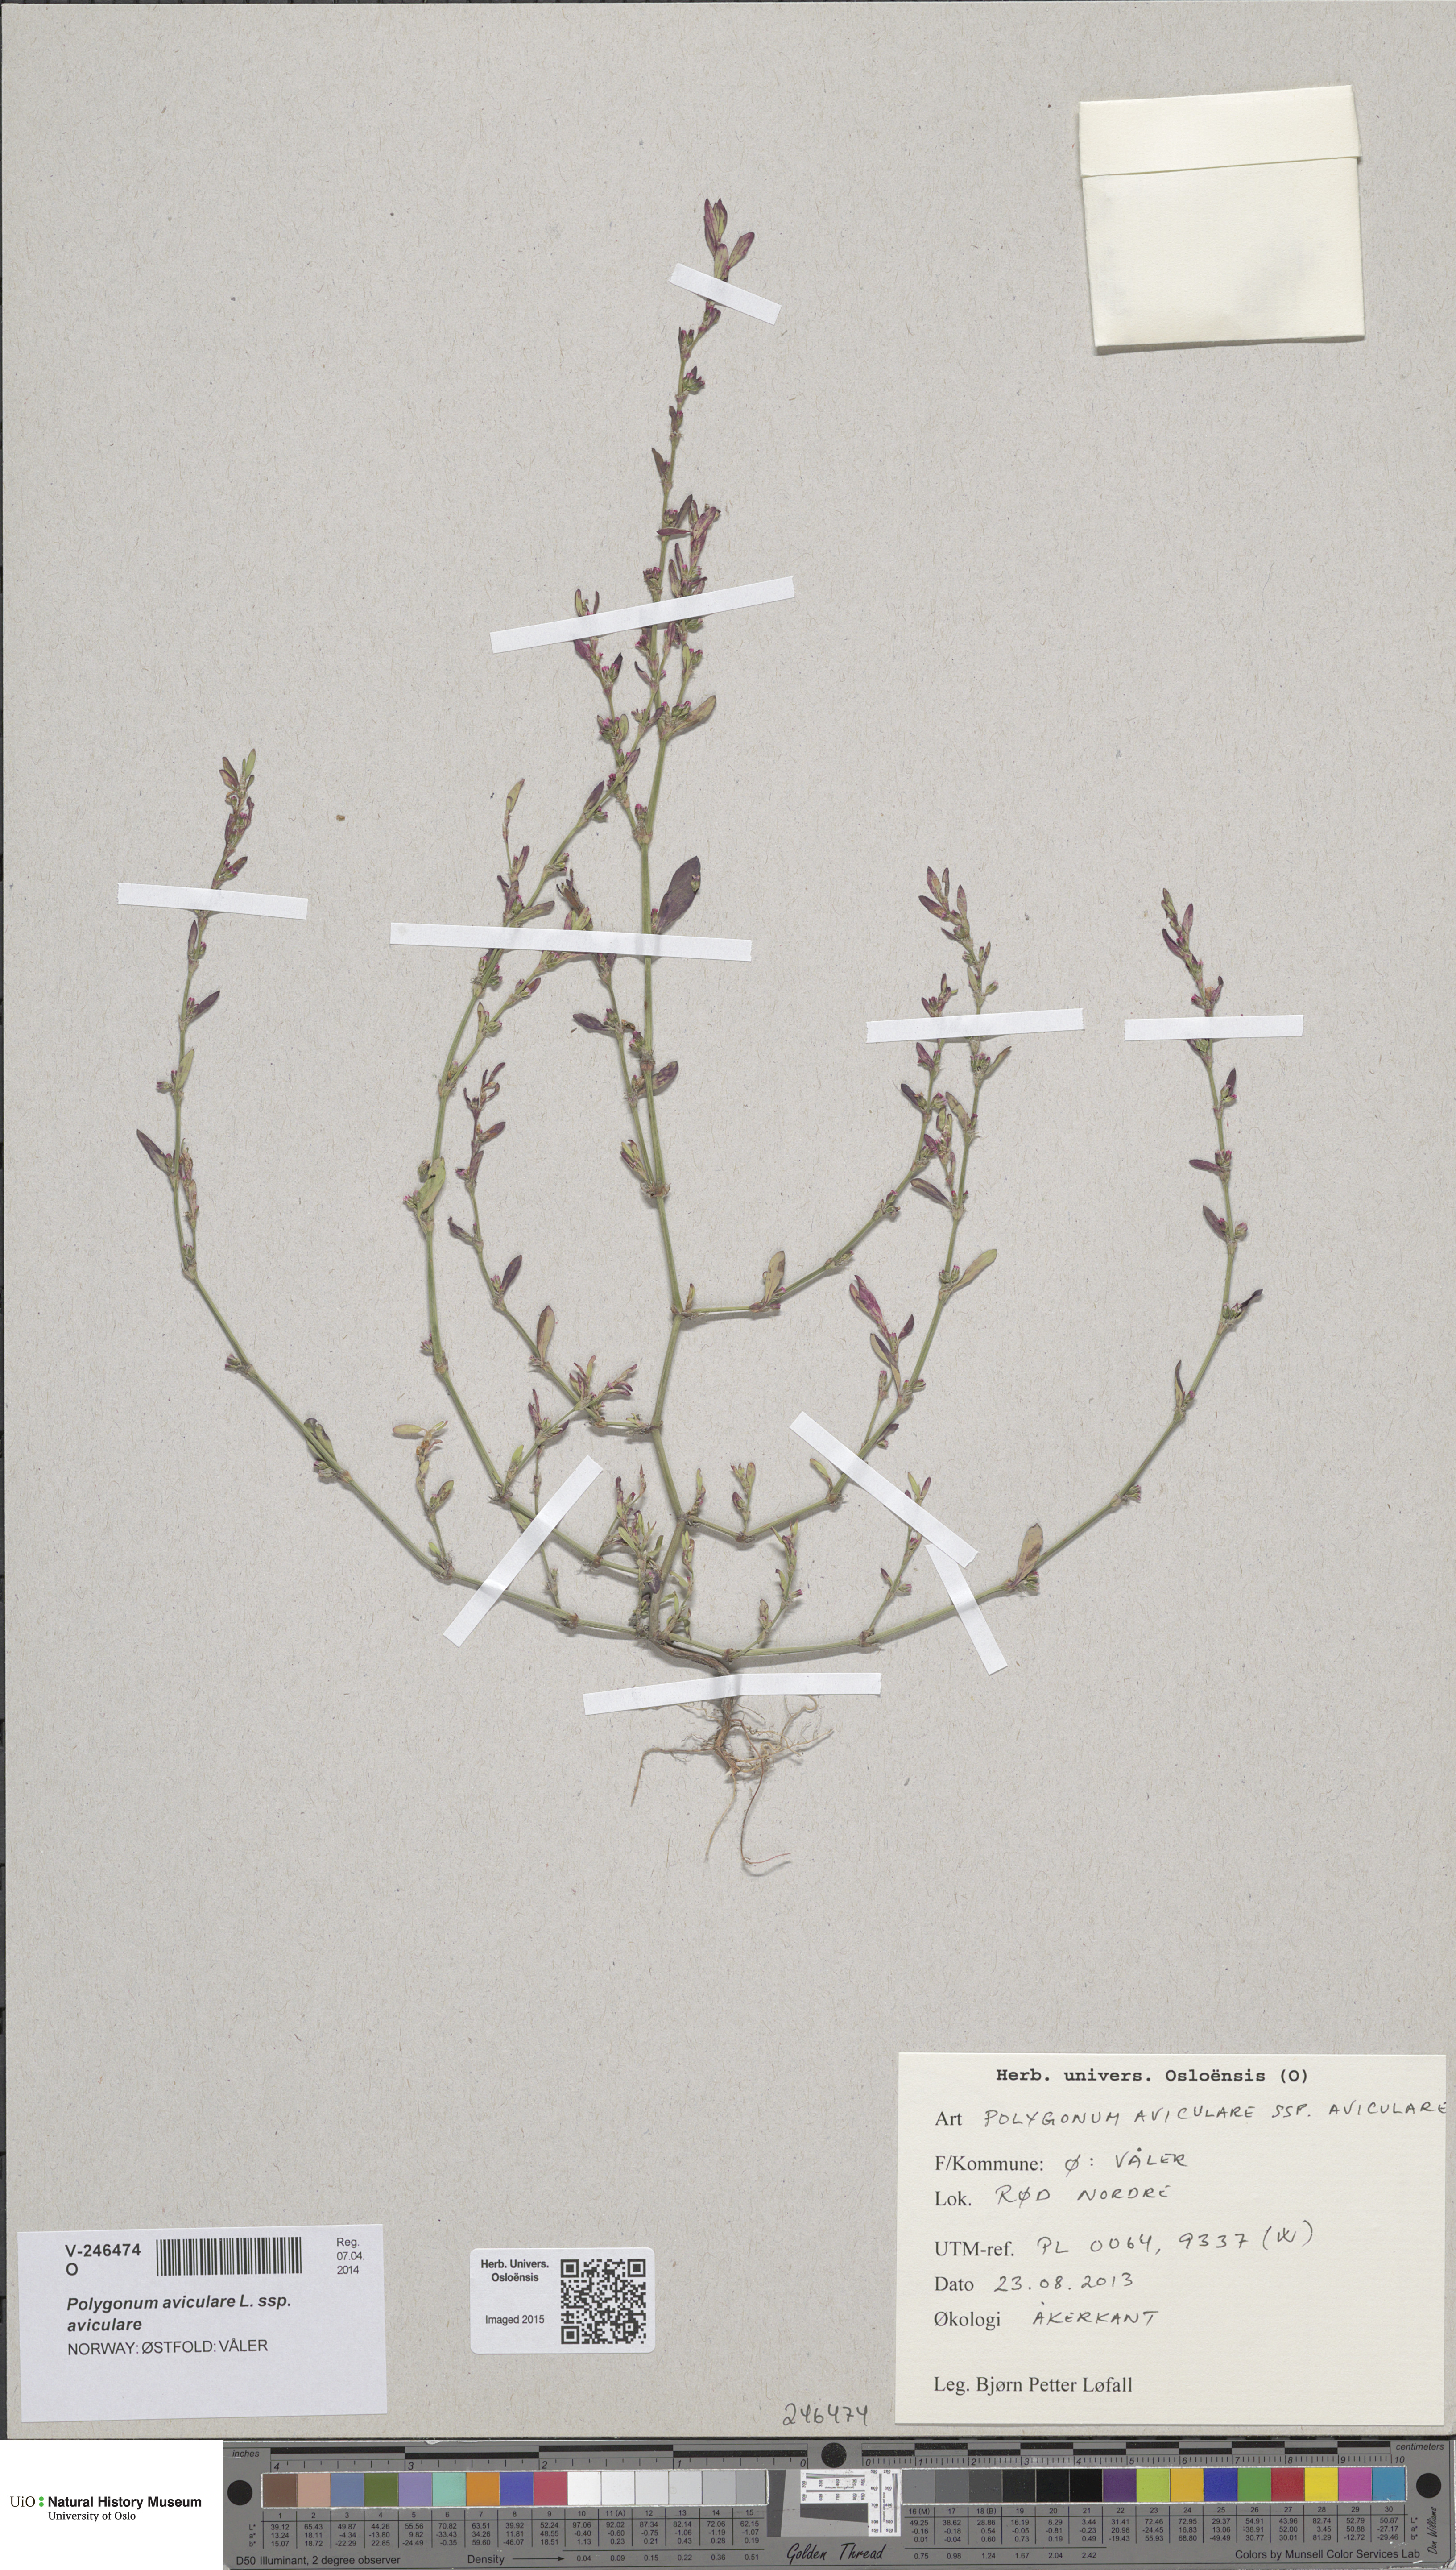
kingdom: Plantae
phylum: Tracheophyta
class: Magnoliopsida
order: Caryophyllales
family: Polygonaceae
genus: Polygonum
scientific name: Polygonum aviculare
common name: Prostrate knotweed
